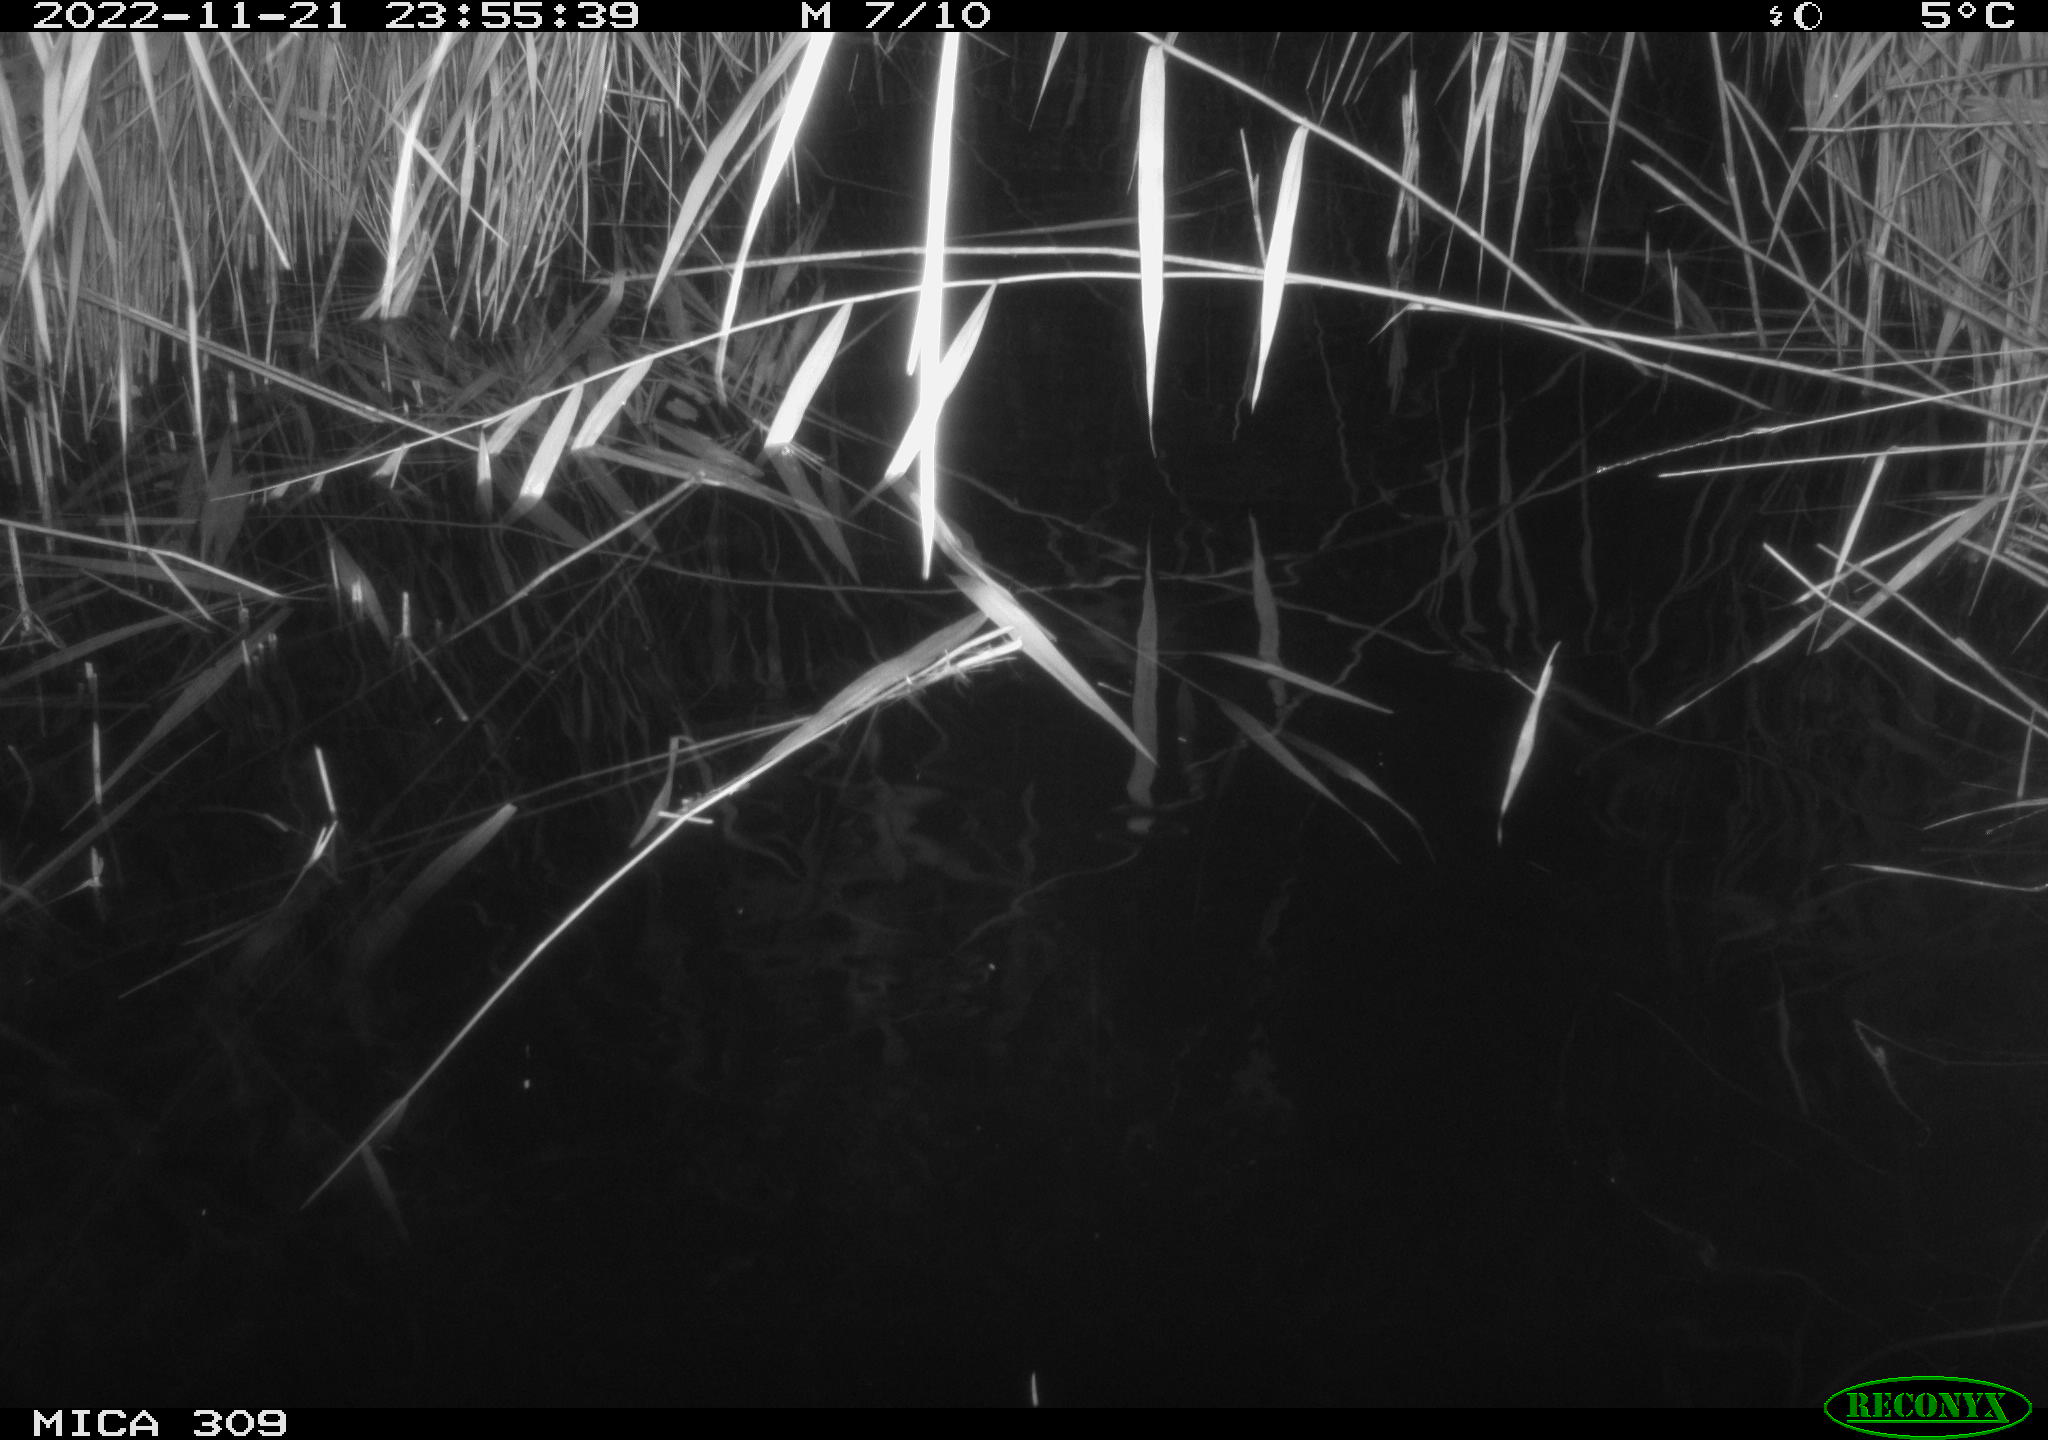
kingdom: Animalia
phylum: Chordata
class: Mammalia
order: Rodentia
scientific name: Rodentia
